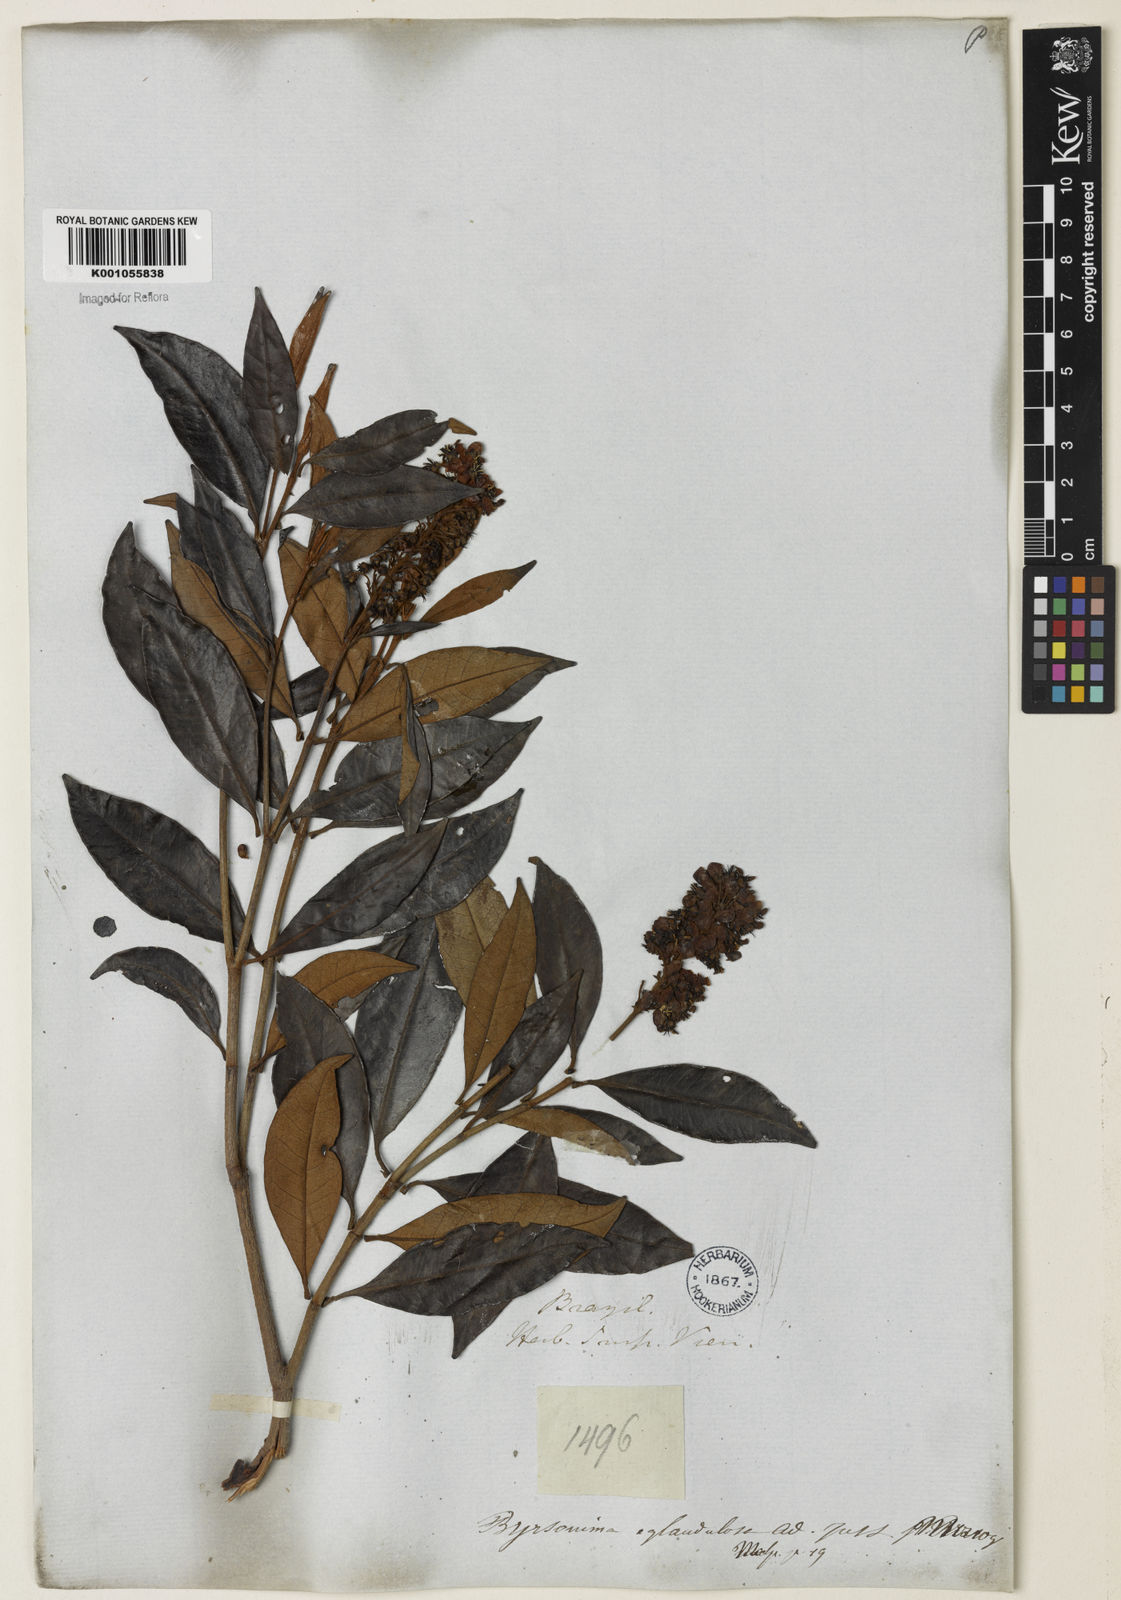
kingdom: Plantae
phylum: Tracheophyta
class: Magnoliopsida
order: Malpighiales
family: Malpighiaceae
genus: Byrsonima
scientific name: Byrsonima sericea
